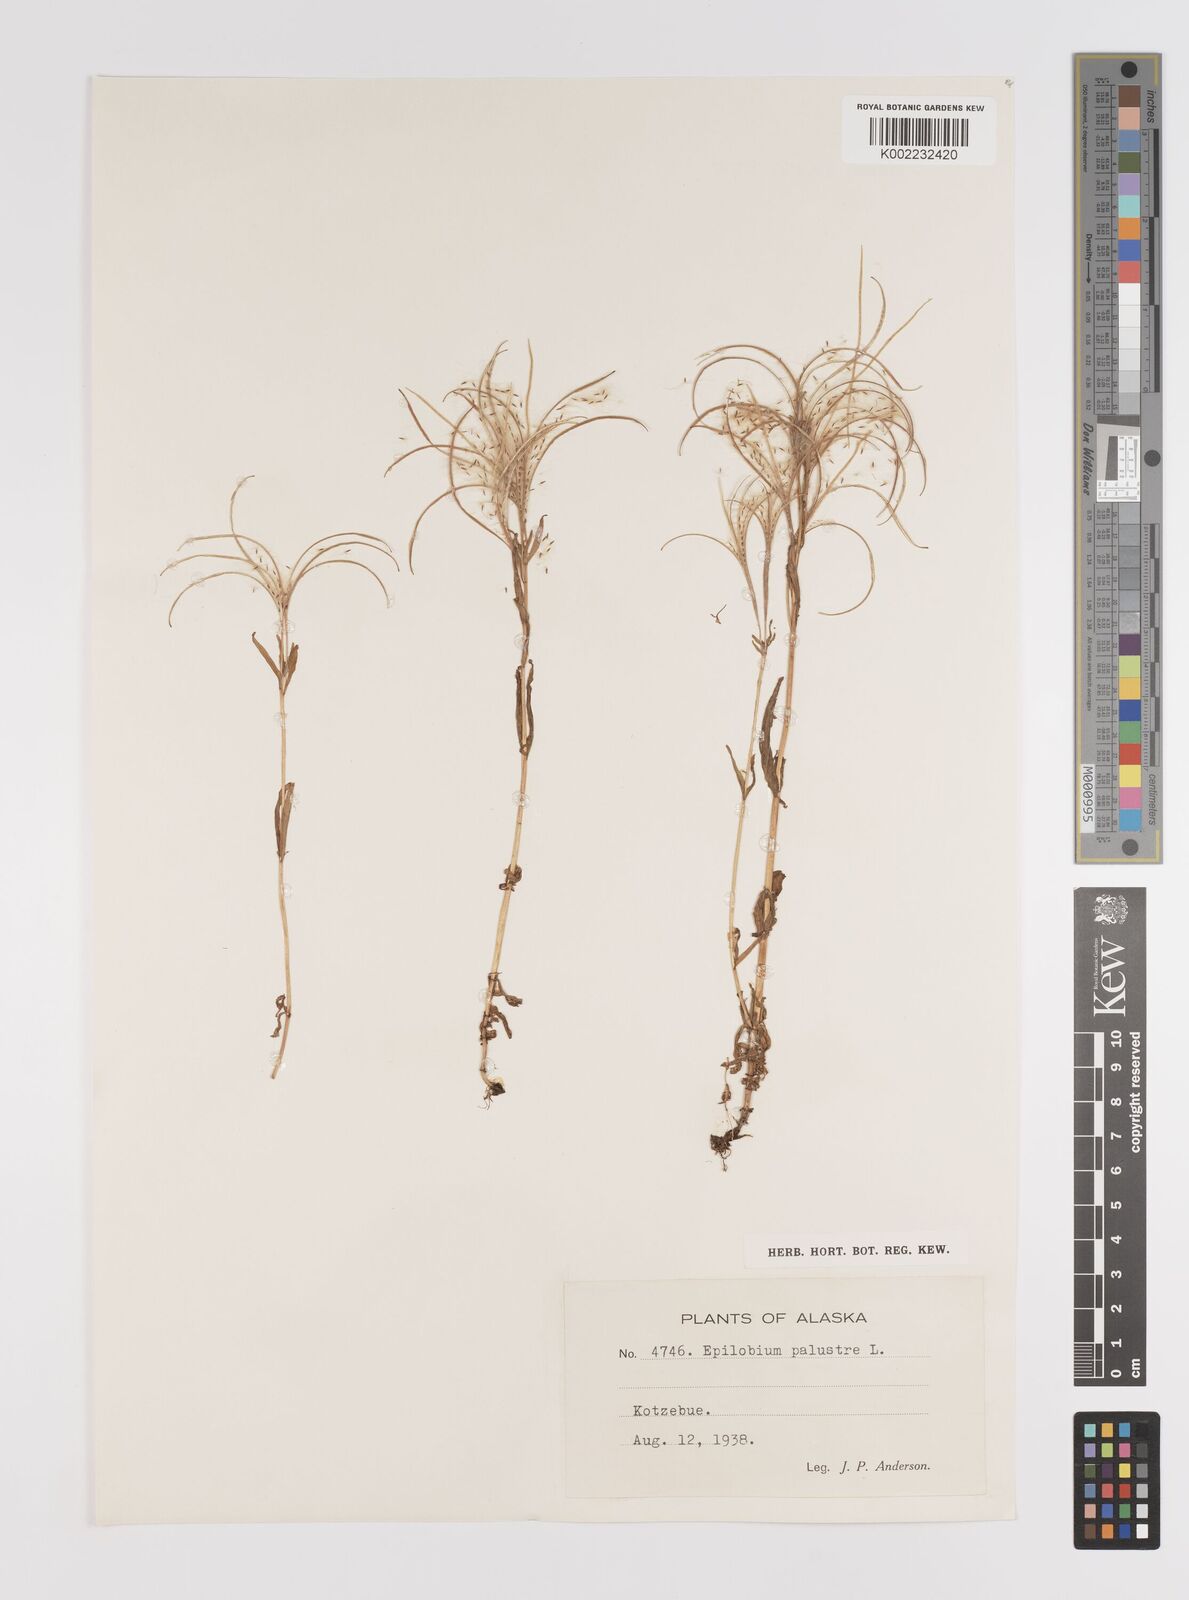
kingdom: Plantae
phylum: Tracheophyta
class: Magnoliopsida
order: Myrtales
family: Onagraceae
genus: Epilobium
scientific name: Epilobium palustre
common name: Marsh willowherb
